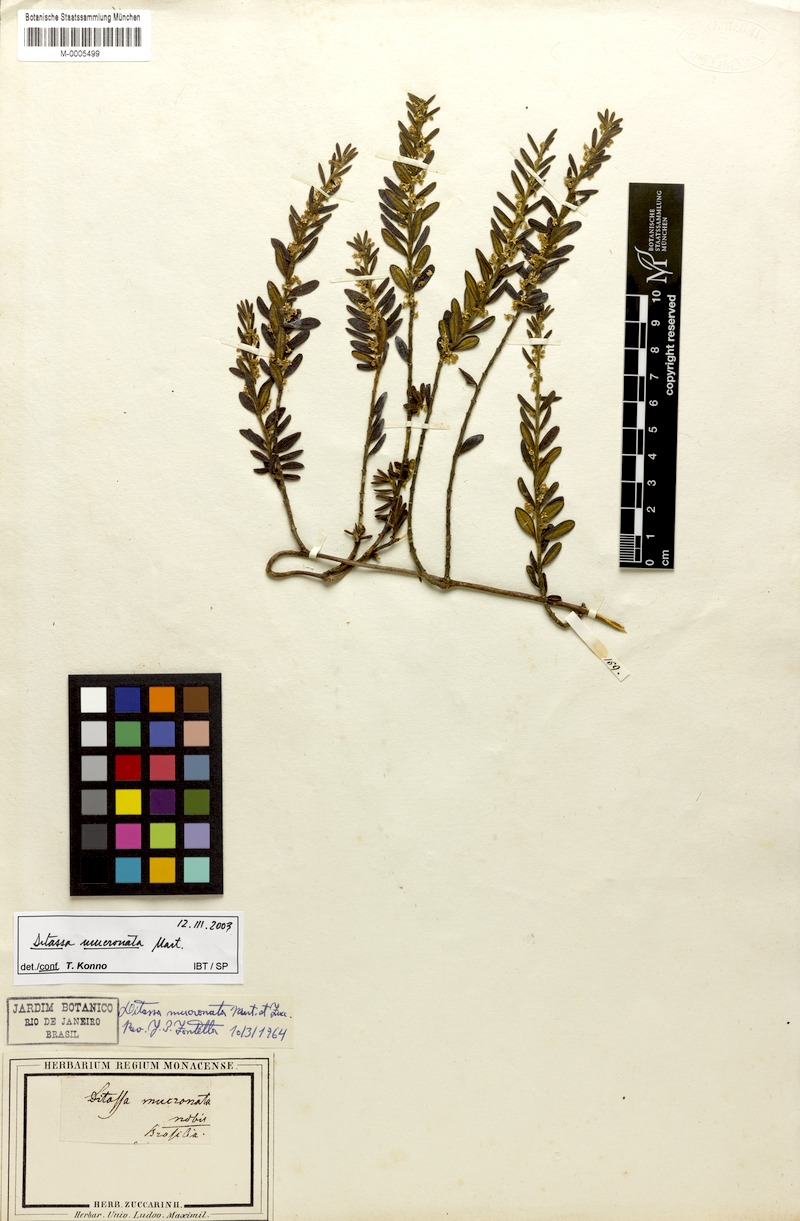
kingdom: Plantae
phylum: Tracheophyta
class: Magnoliopsida
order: Gentianales
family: Apocynaceae
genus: Ditassa
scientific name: Ditassa mucronata
